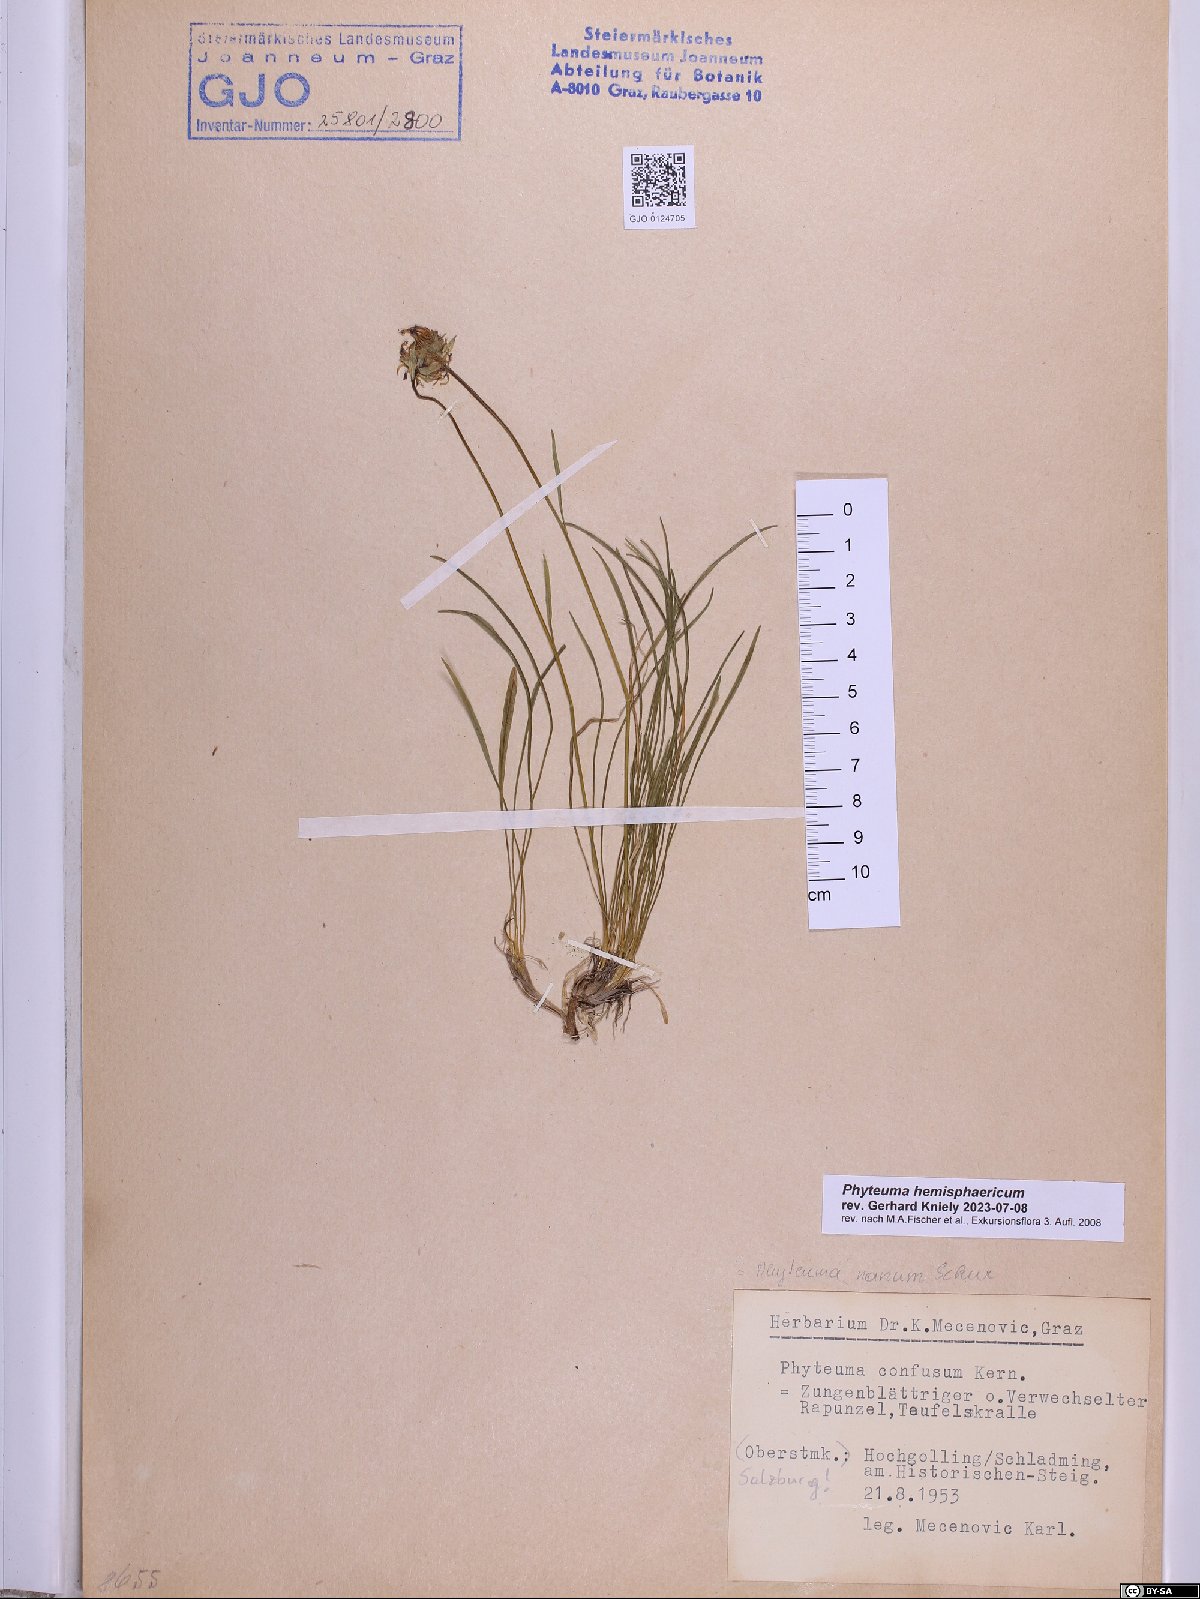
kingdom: Plantae
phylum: Tracheophyta
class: Magnoliopsida
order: Asterales
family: Campanulaceae
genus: Phyteuma
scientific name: Phyteuma hemisphaericum
